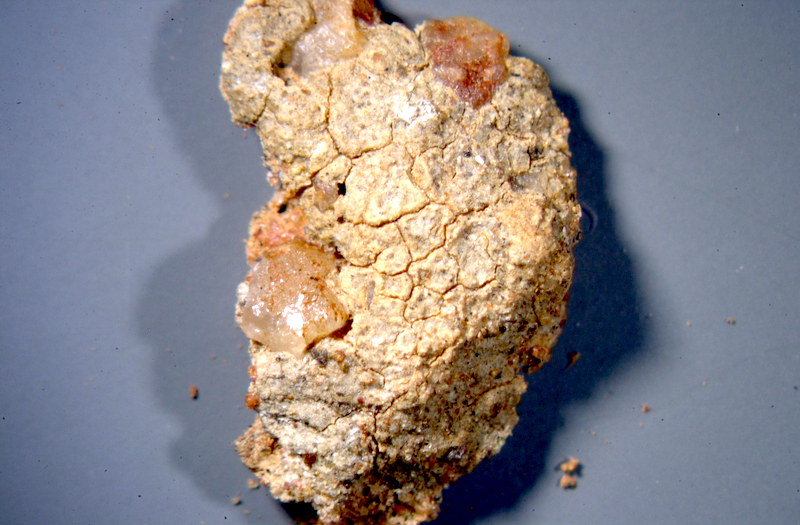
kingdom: Fungi
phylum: Ascomycota
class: Lecanoromycetes
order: Ostropales
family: Graphidaceae
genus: Diploschistes
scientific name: Diploschistes hensseniae
